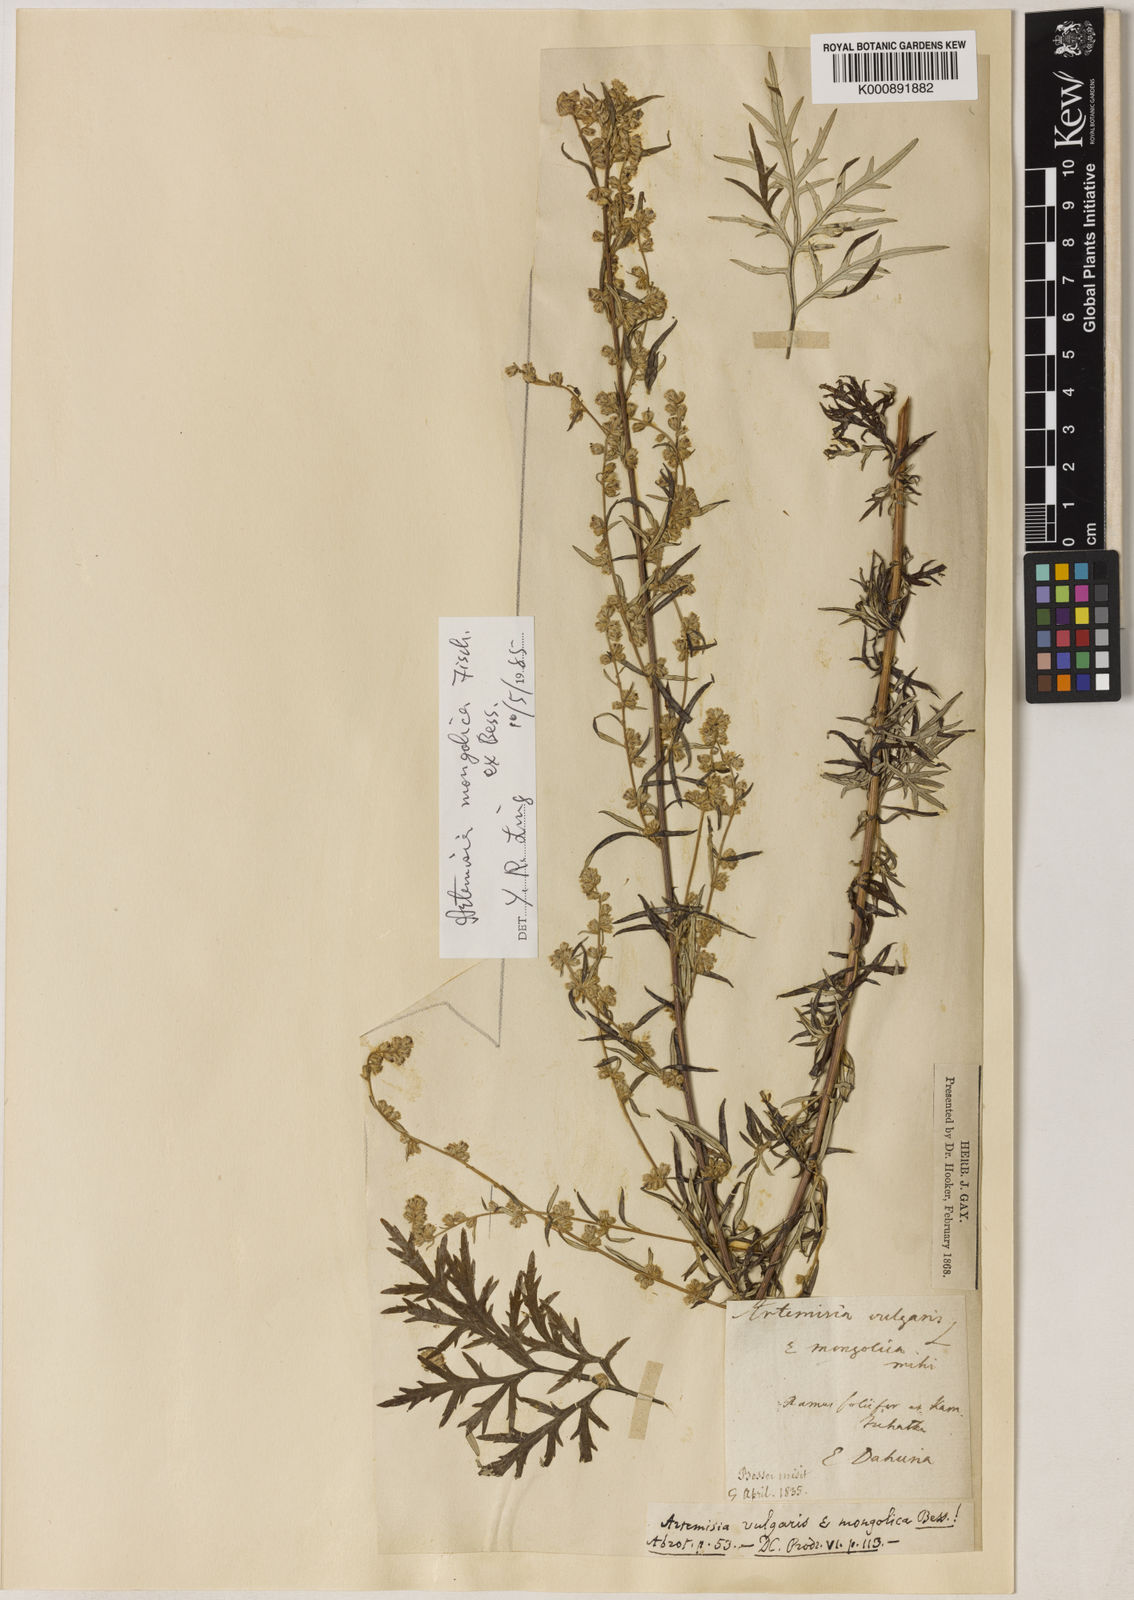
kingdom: Plantae
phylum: Tracheophyta
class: Magnoliopsida
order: Asterales
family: Asteraceae
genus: Artemisia
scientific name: Artemisia mongolica
